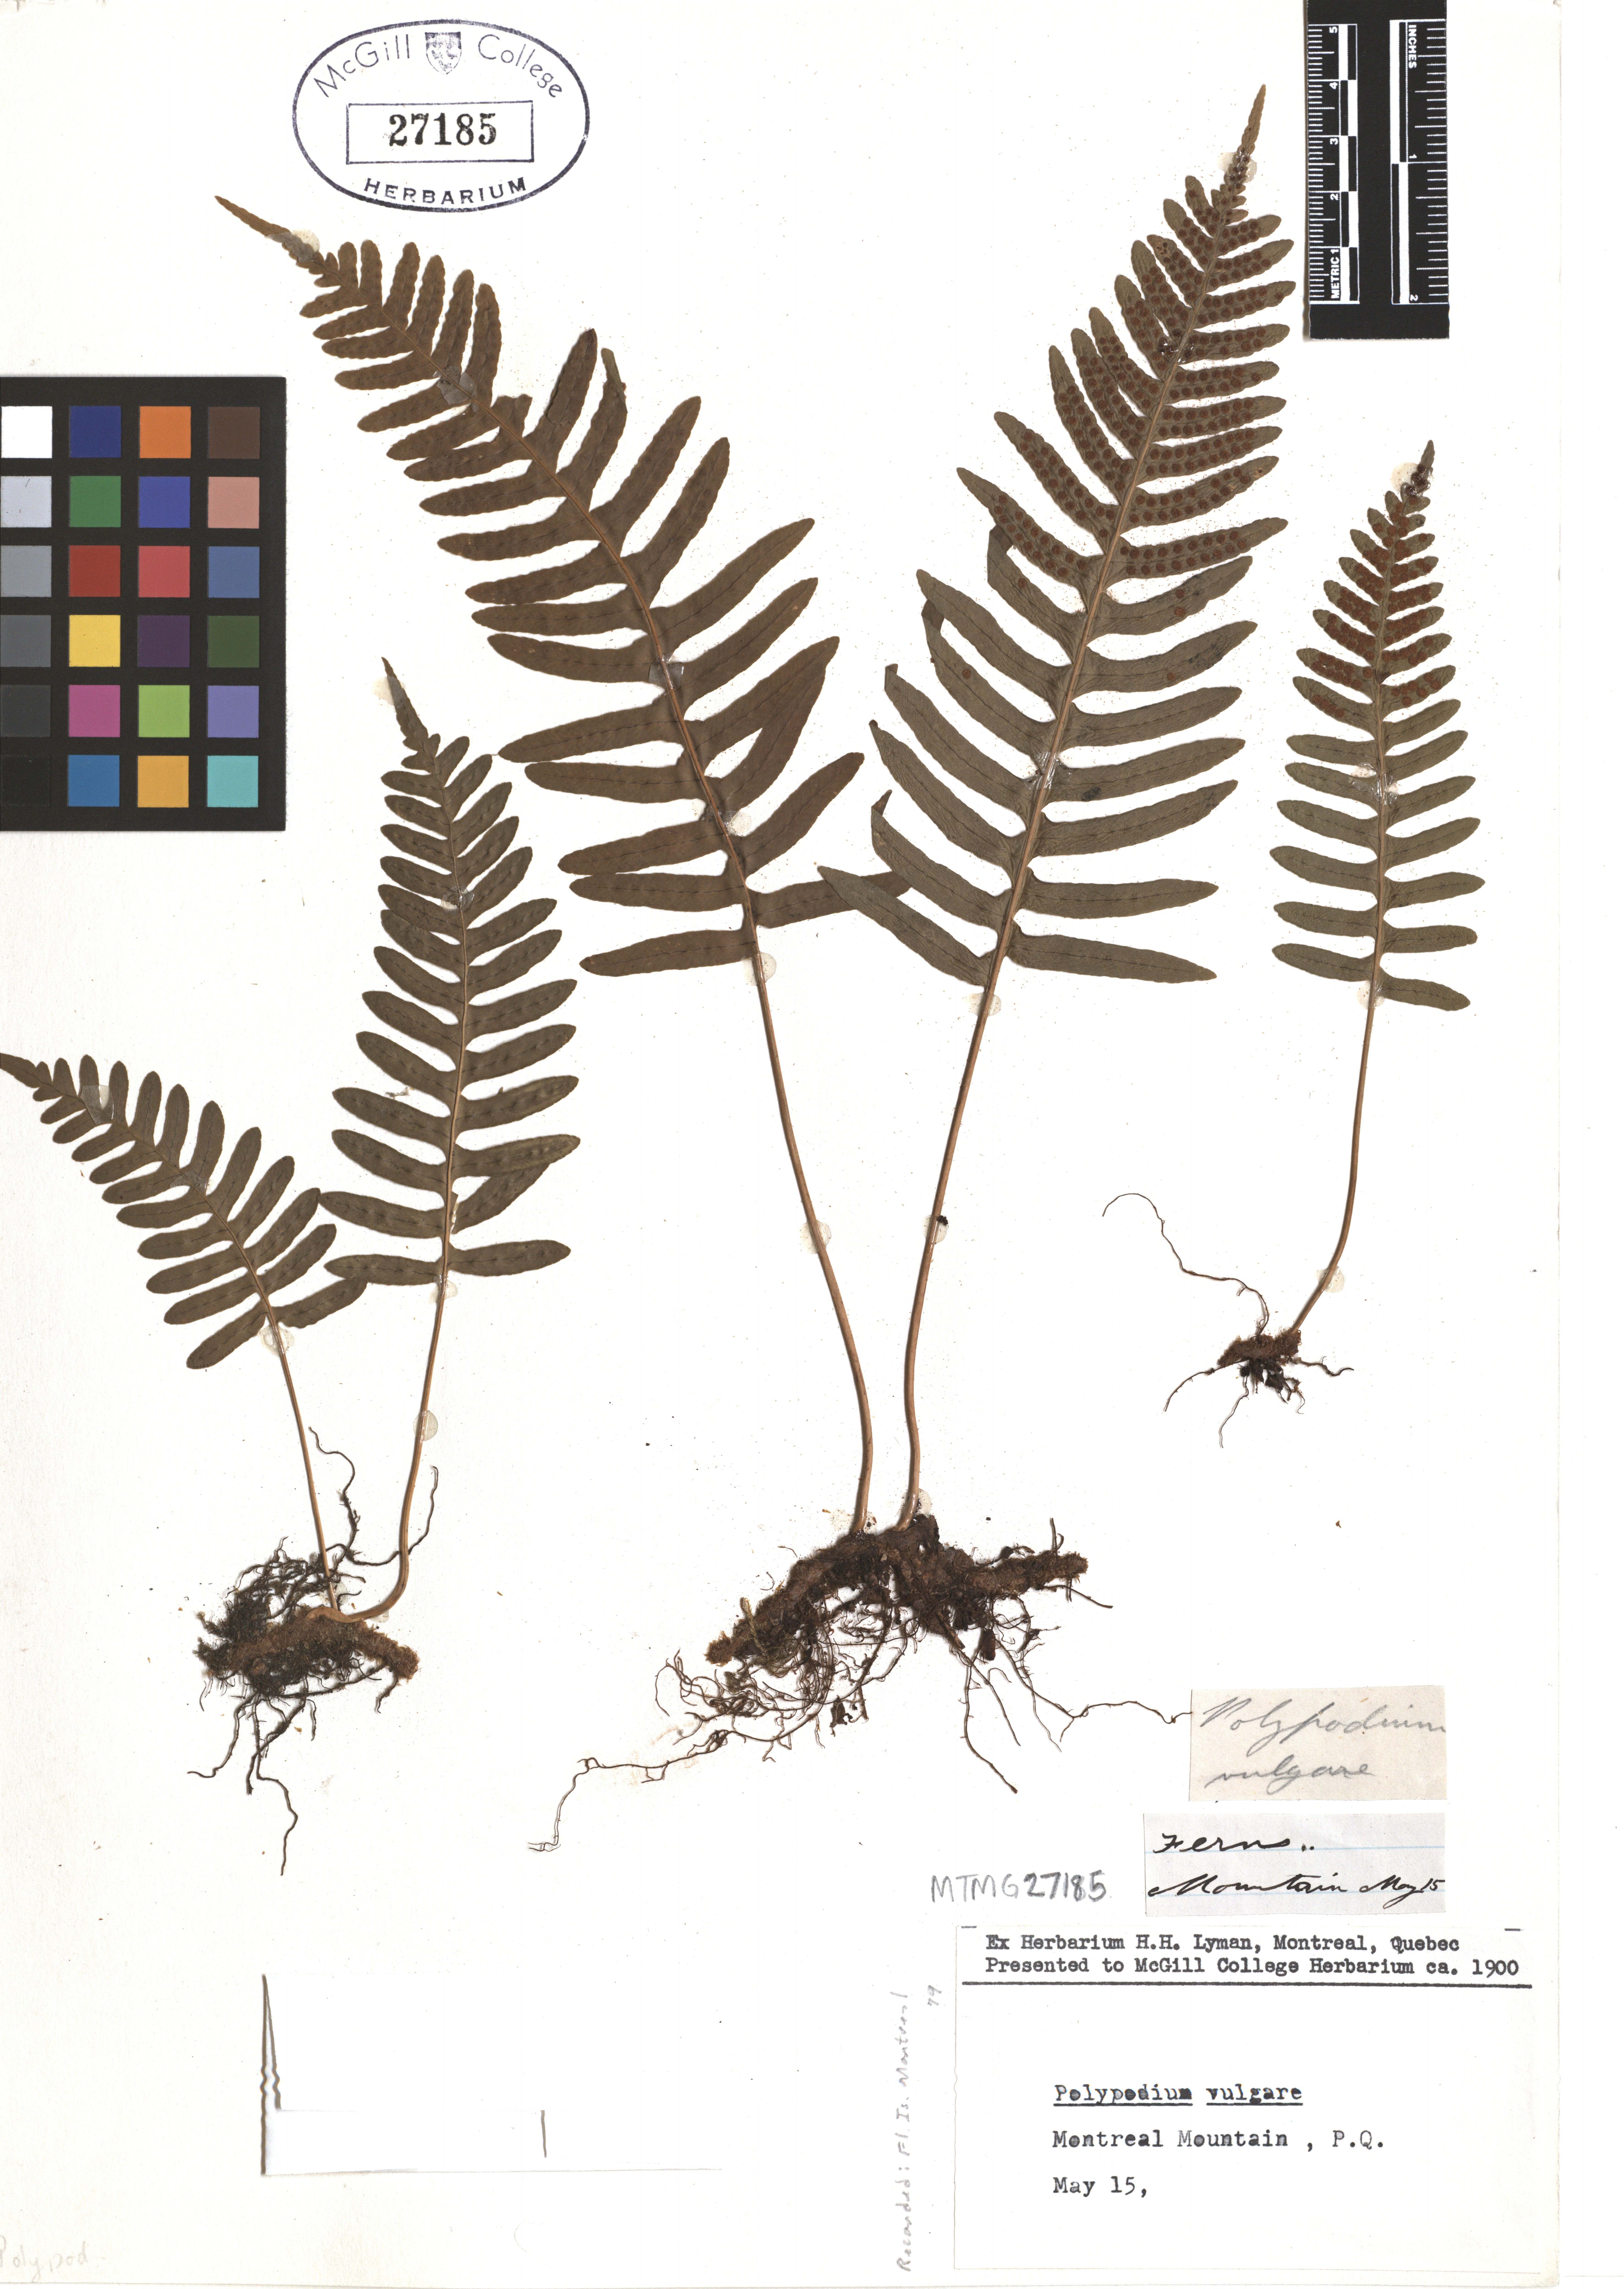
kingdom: Plantae
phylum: Tracheophyta
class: Polypodiopsida
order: Polypodiales
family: Polypodiaceae
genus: Polypodium
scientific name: Polypodium vulgare
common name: Common polypody
